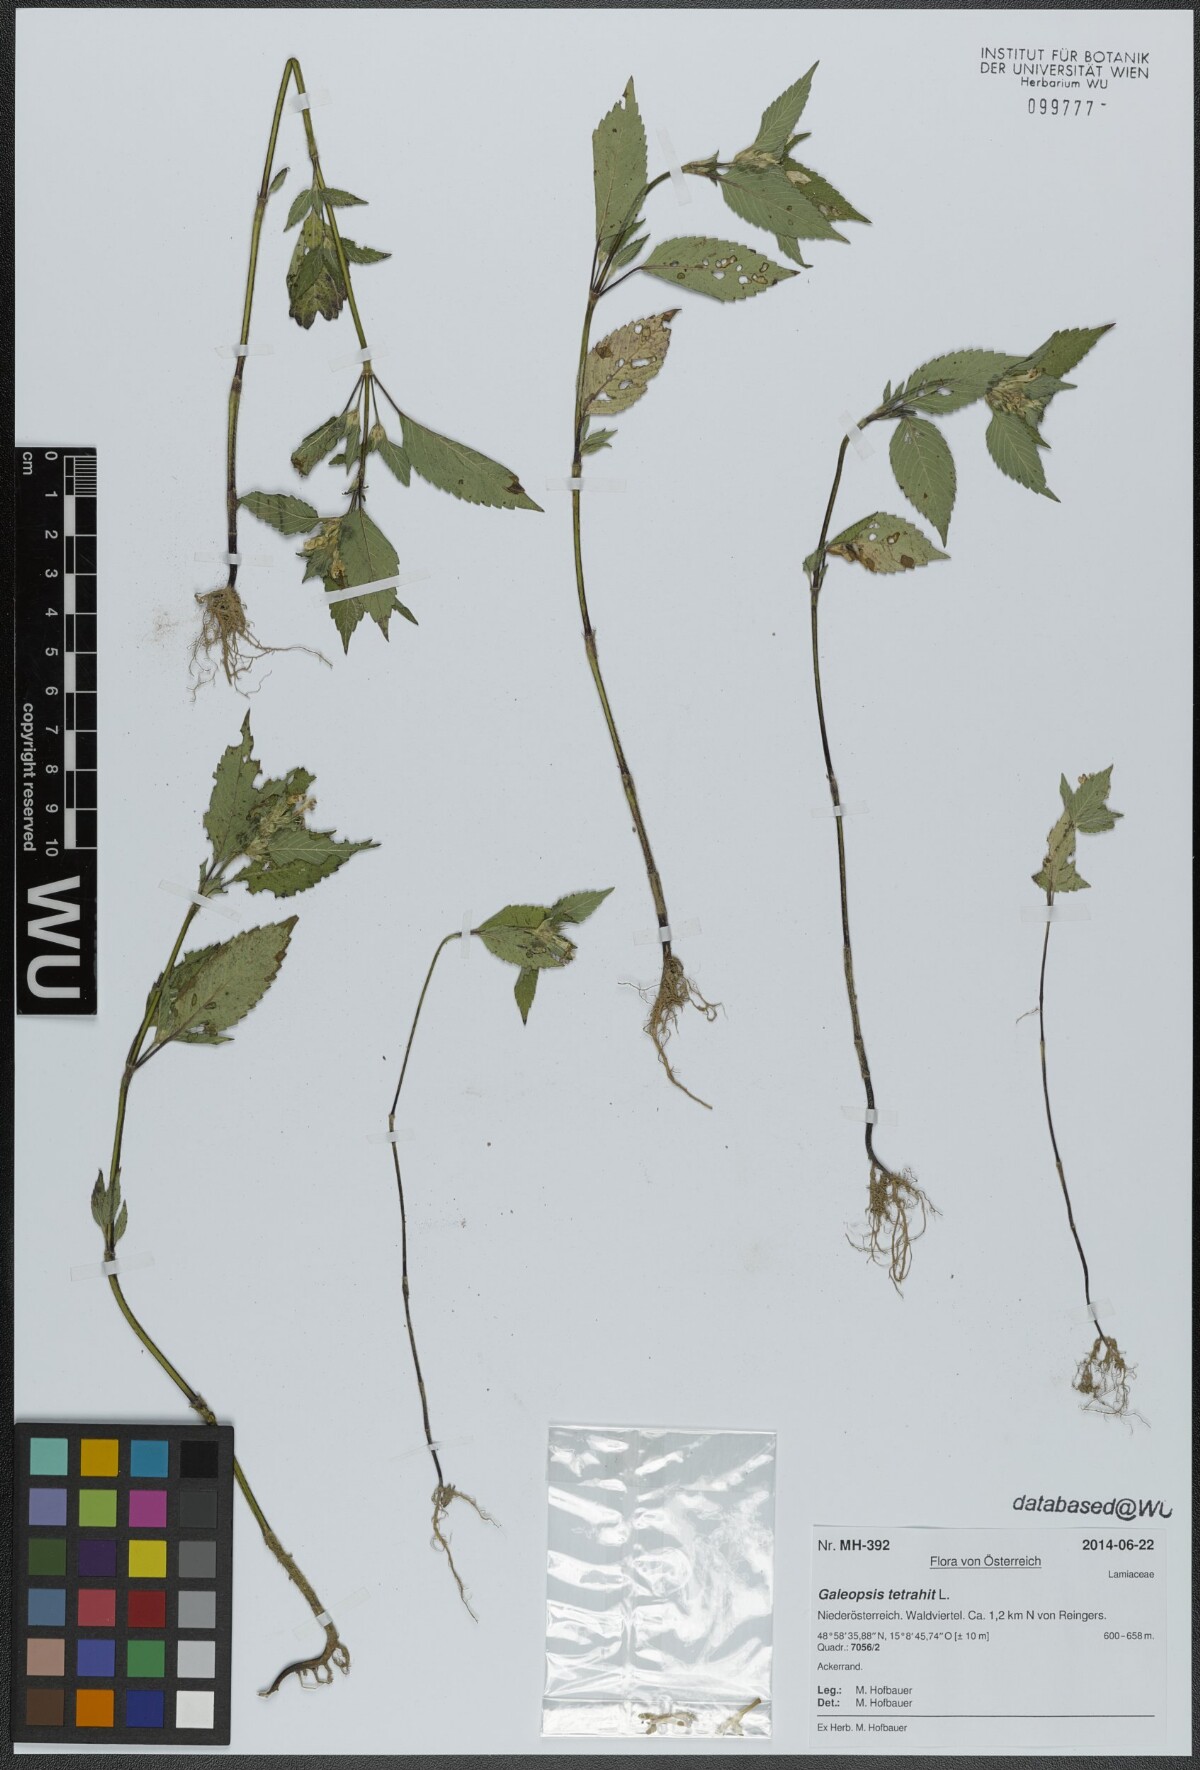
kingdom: Plantae
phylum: Tracheophyta
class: Magnoliopsida
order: Lamiales
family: Lamiaceae
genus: Galeopsis
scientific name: Galeopsis tetrahit
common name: Common hemp-nettle
